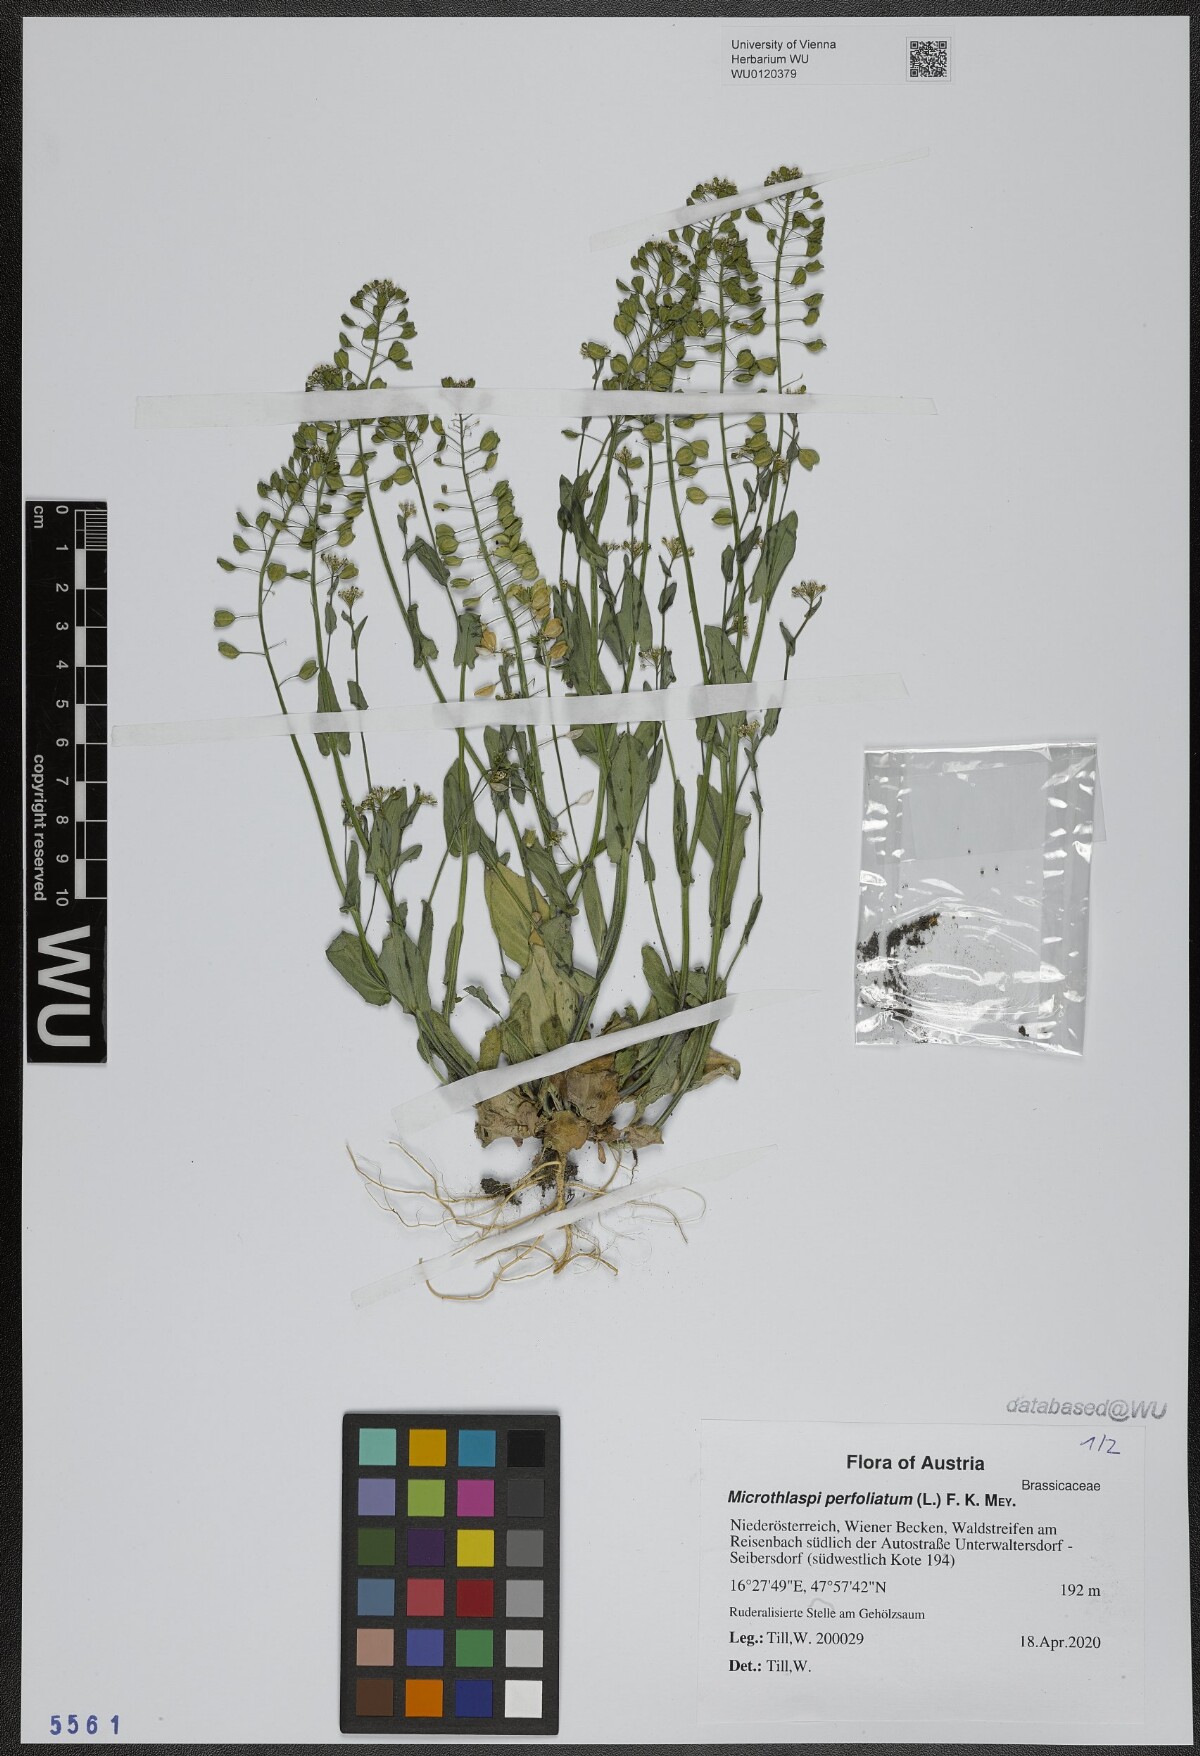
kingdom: Plantae
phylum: Tracheophyta
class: Magnoliopsida
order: Brassicales
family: Brassicaceae
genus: Noccaea
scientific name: Noccaea perfoliata
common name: Perfoliate pennycress
